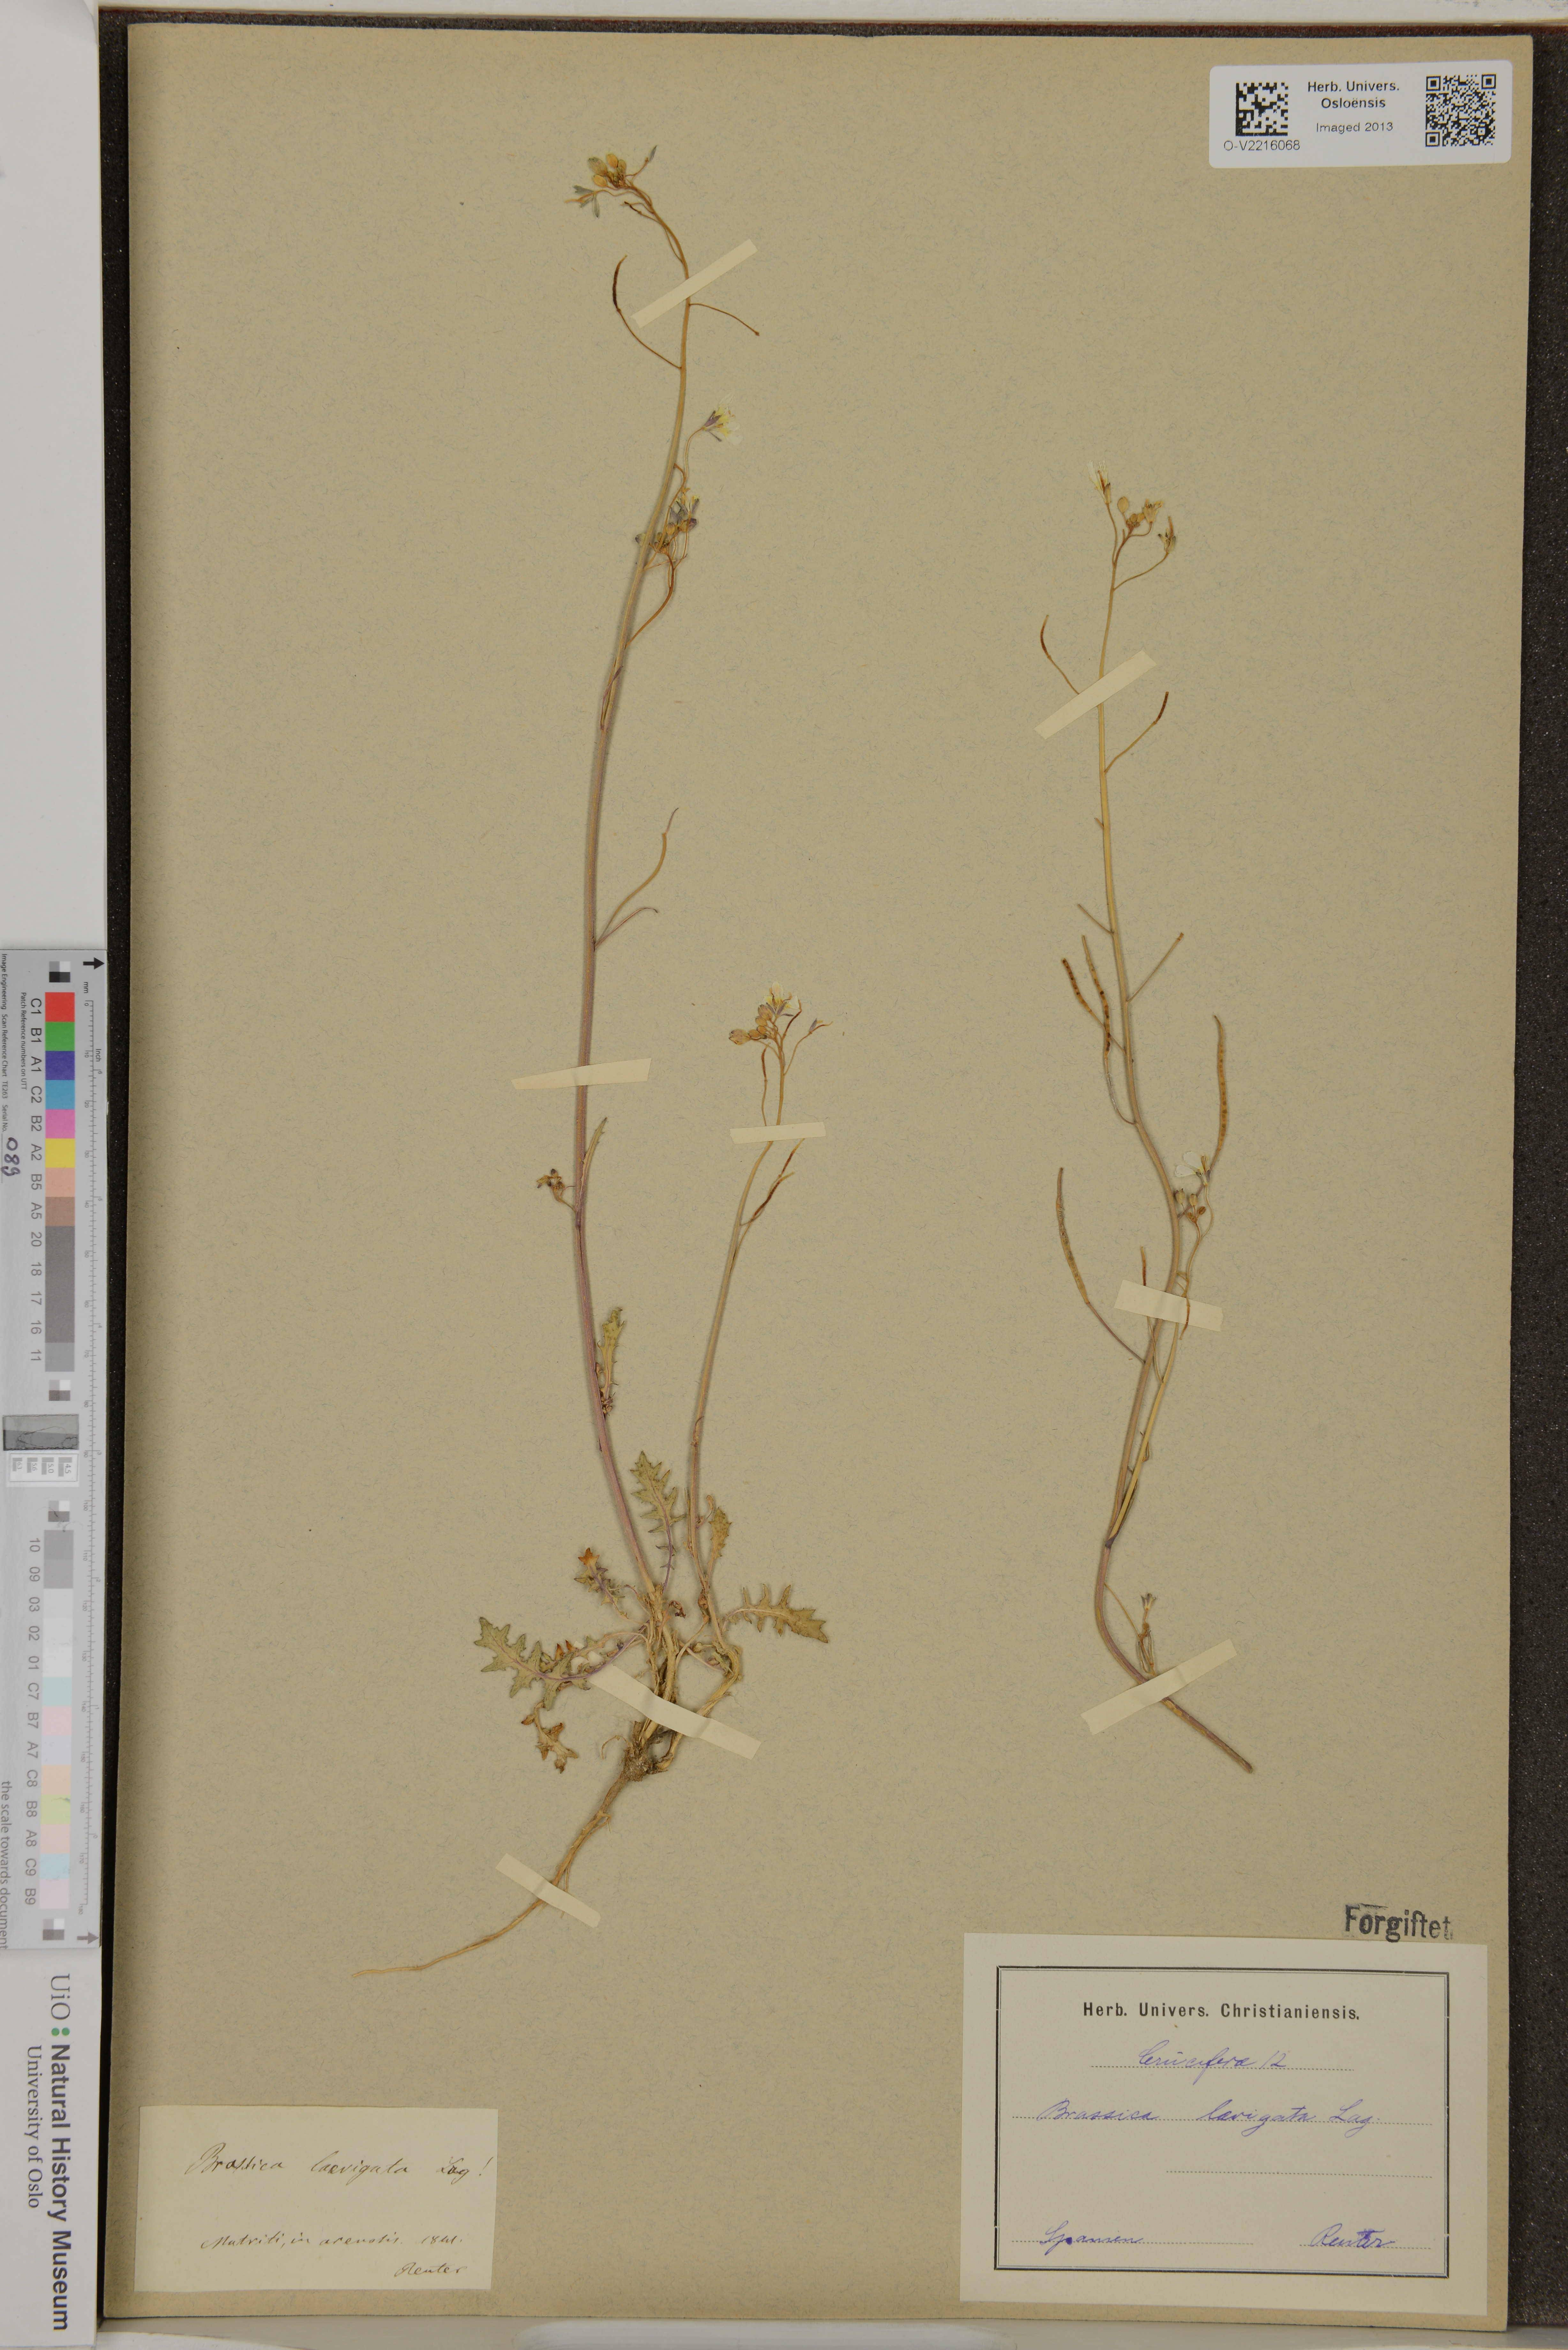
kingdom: Plantae
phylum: Tracheophyta
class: Magnoliopsida
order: Brassicales
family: Brassicaceae
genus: Brassica
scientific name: Brassica laevigata
